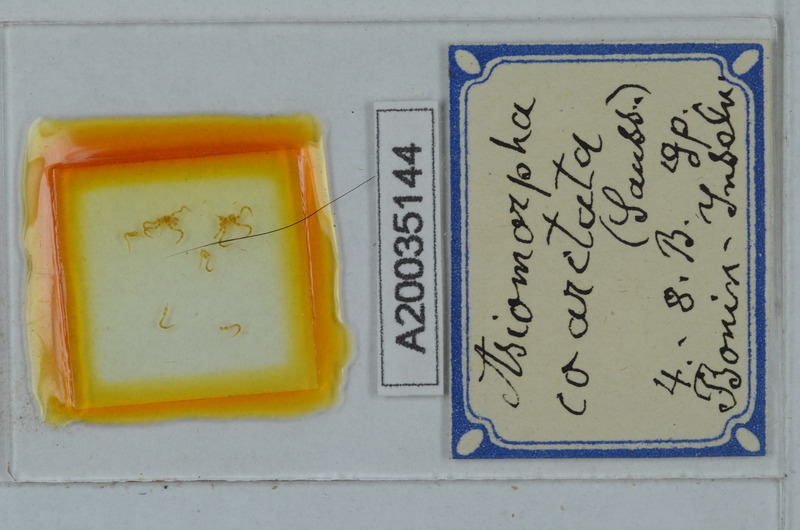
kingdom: Animalia
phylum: Arthropoda
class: Diplopoda
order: Polydesmida
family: Paradoxosomatidae
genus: Asiomorpha
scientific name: Asiomorpha coarctata
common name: Millipede
